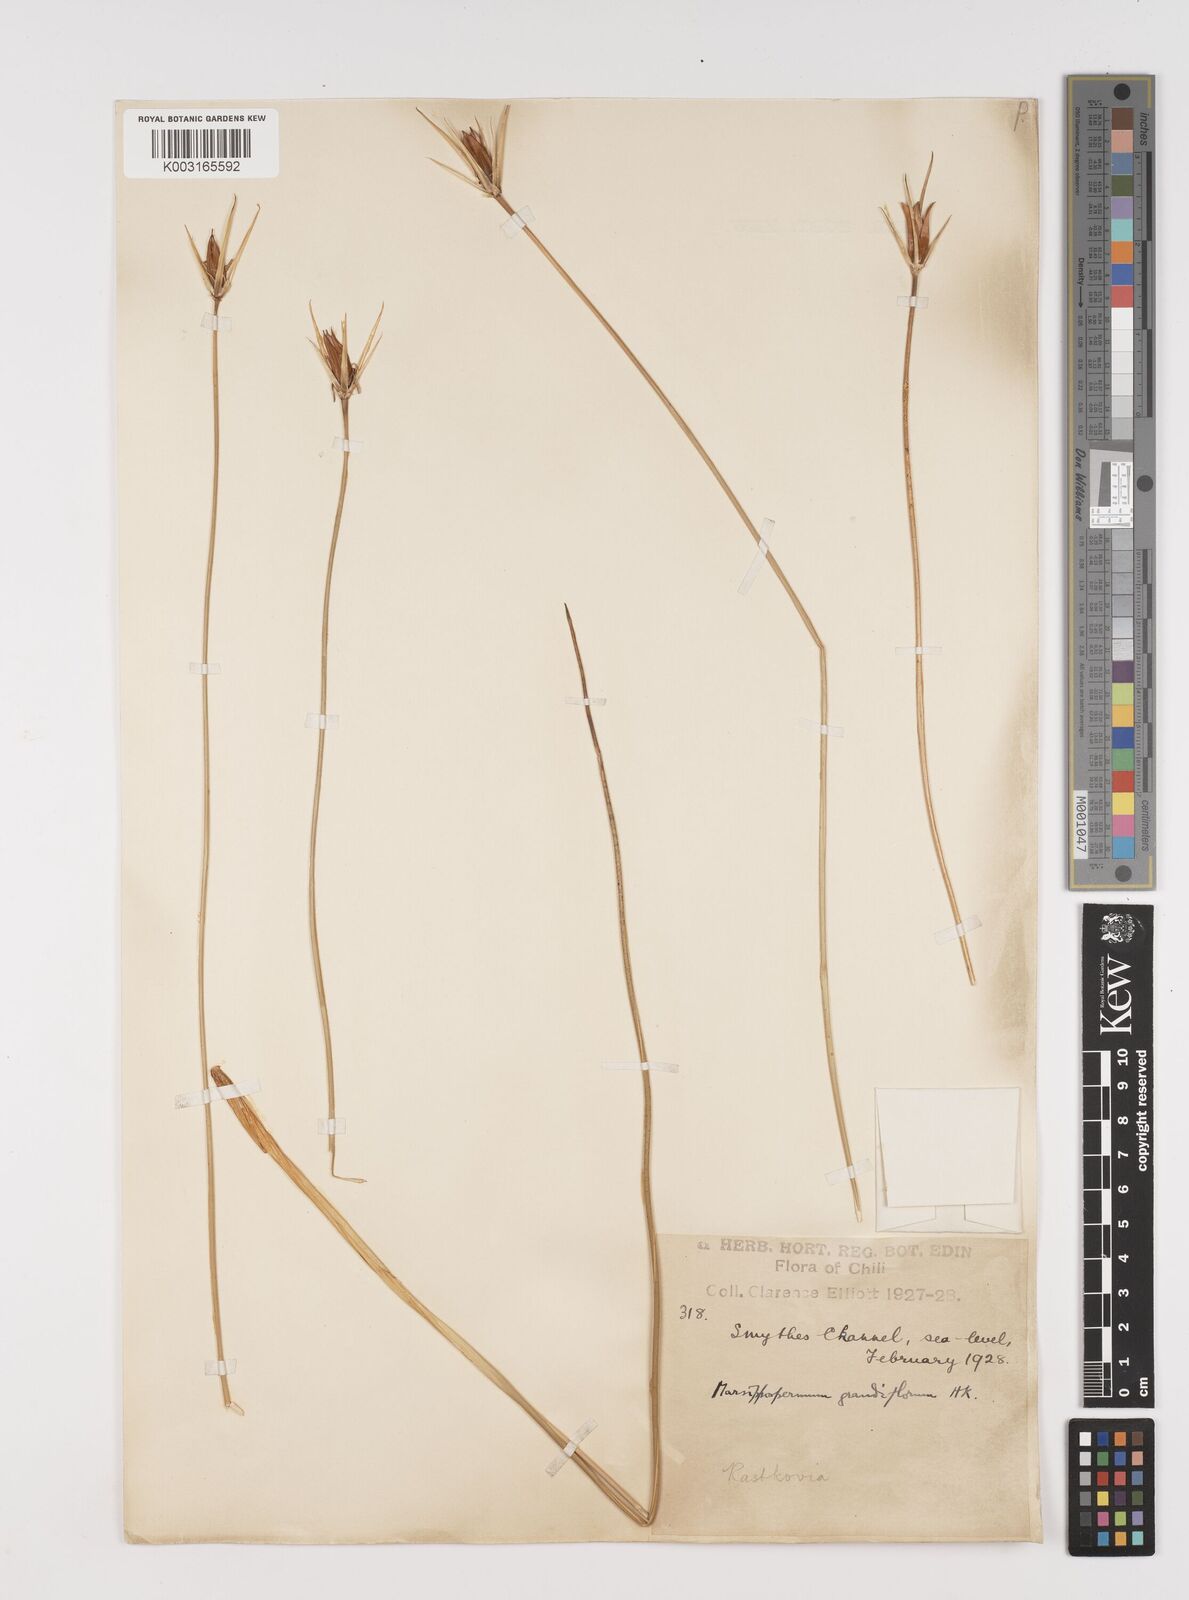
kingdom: Plantae
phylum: Tracheophyta
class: Liliopsida
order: Poales
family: Juncaceae
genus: Marsippospermum
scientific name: Marsippospermum grandiflorum
